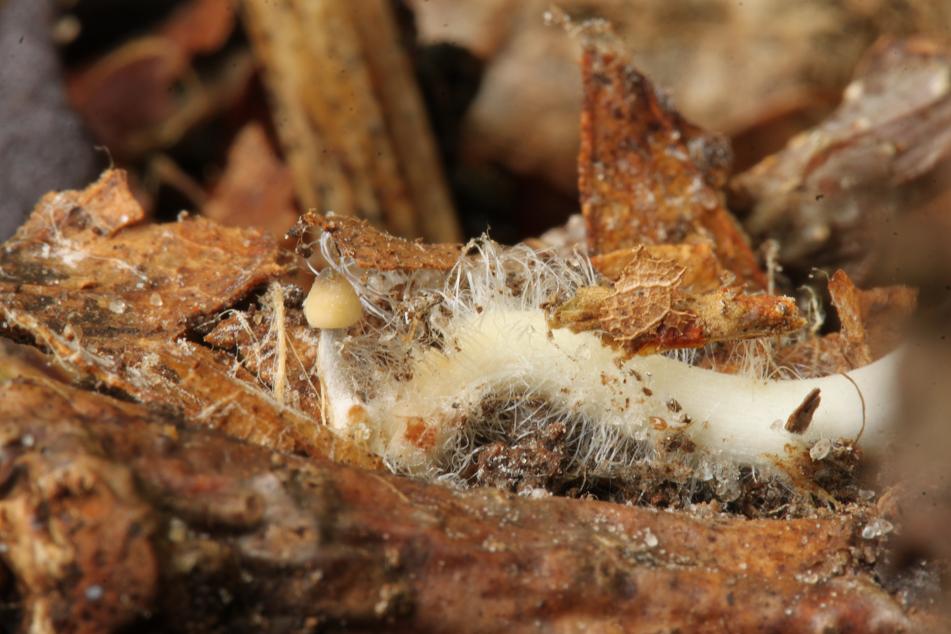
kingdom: Fungi
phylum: Basidiomycota
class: Agaricomycetes
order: Agaricales
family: Mycenaceae
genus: Mycena
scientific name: Mycena polygramma
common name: mangestribet huesvamp
